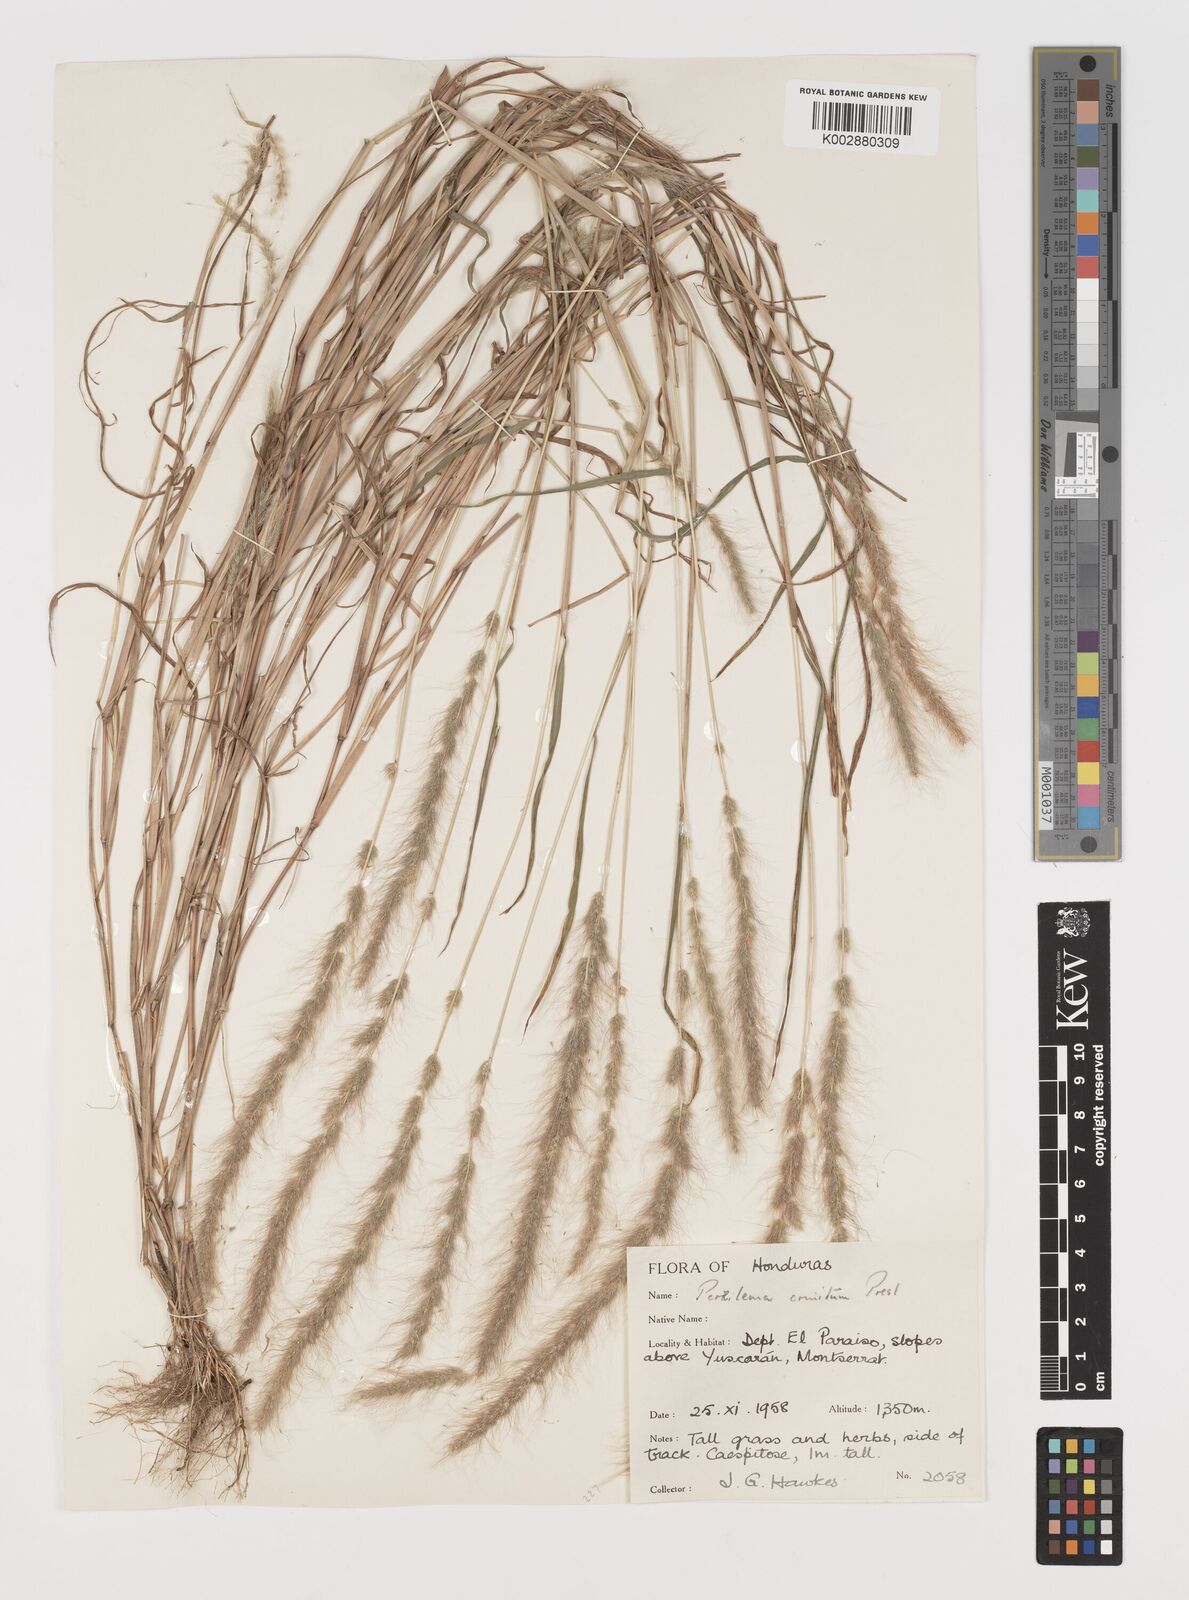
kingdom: Plantae
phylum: Tracheophyta
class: Liliopsida
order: Poales
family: Poaceae
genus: Muhlenbergia
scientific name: Muhlenbergia pereilema
